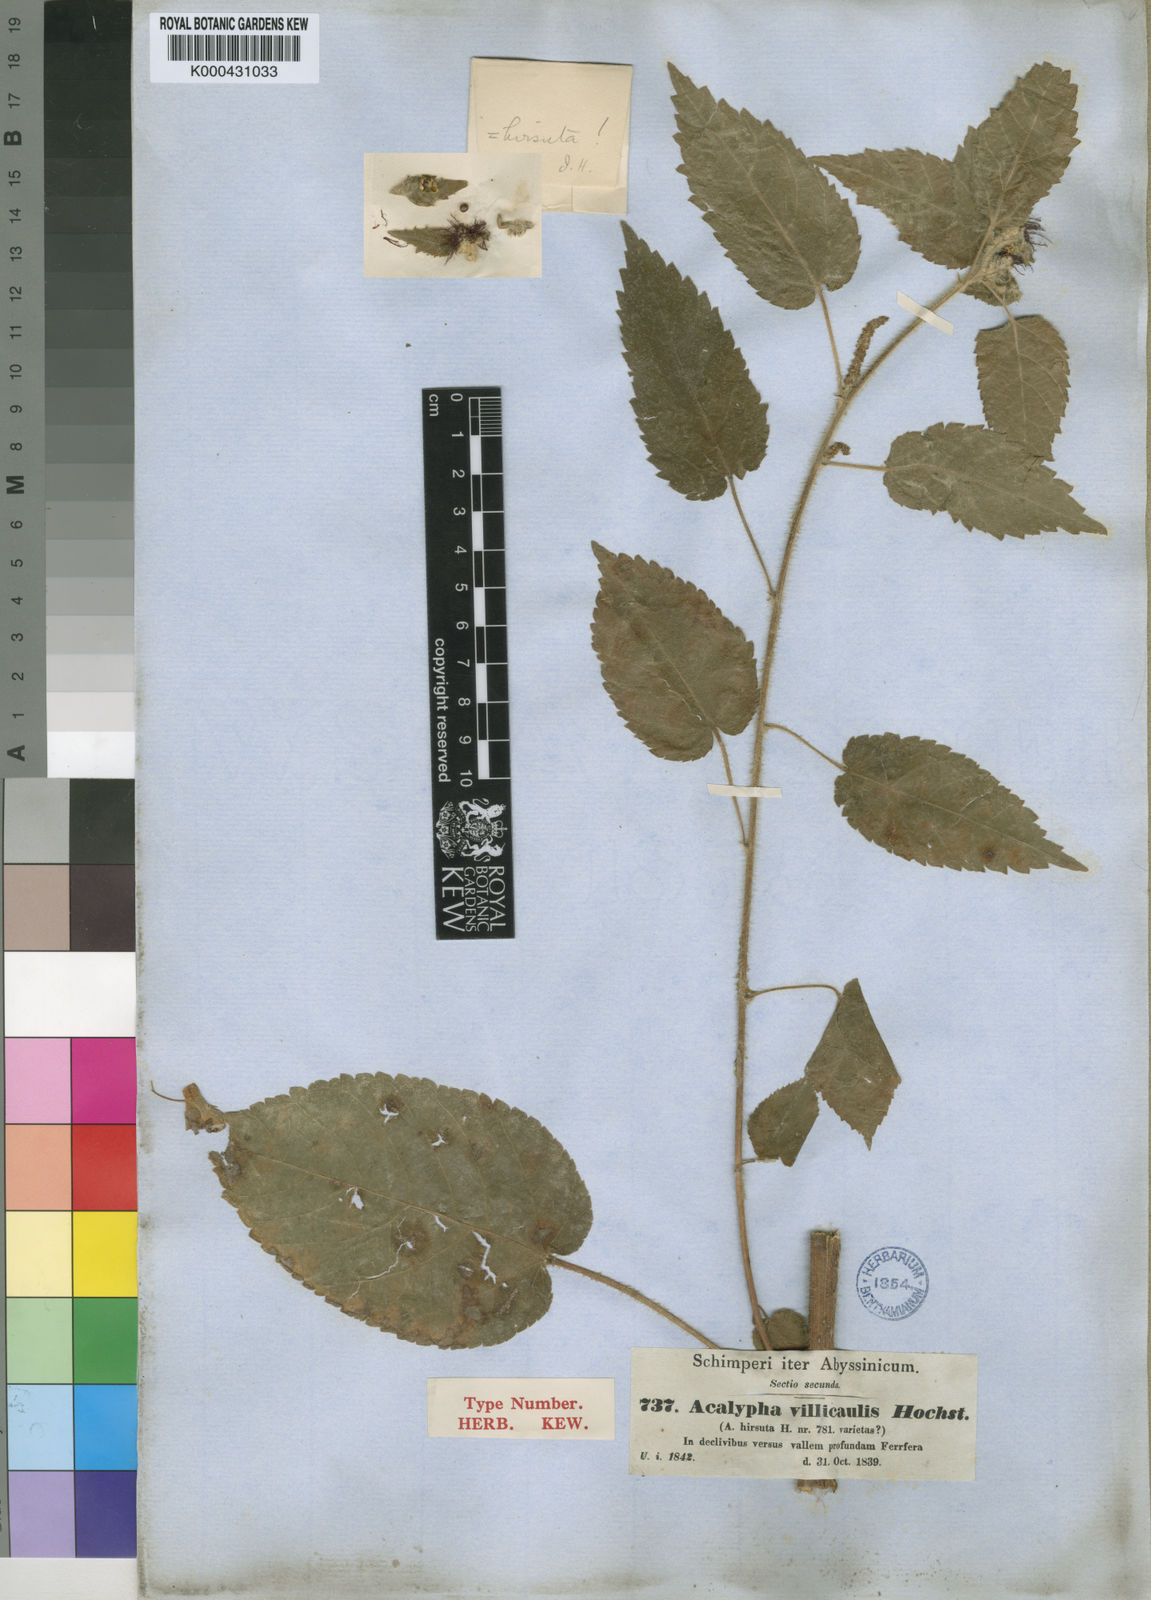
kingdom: Plantae
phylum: Tracheophyta
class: Magnoliopsida
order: Malpighiales
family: Euphorbiaceae
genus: Acalypha
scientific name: Acalypha petiolaris
